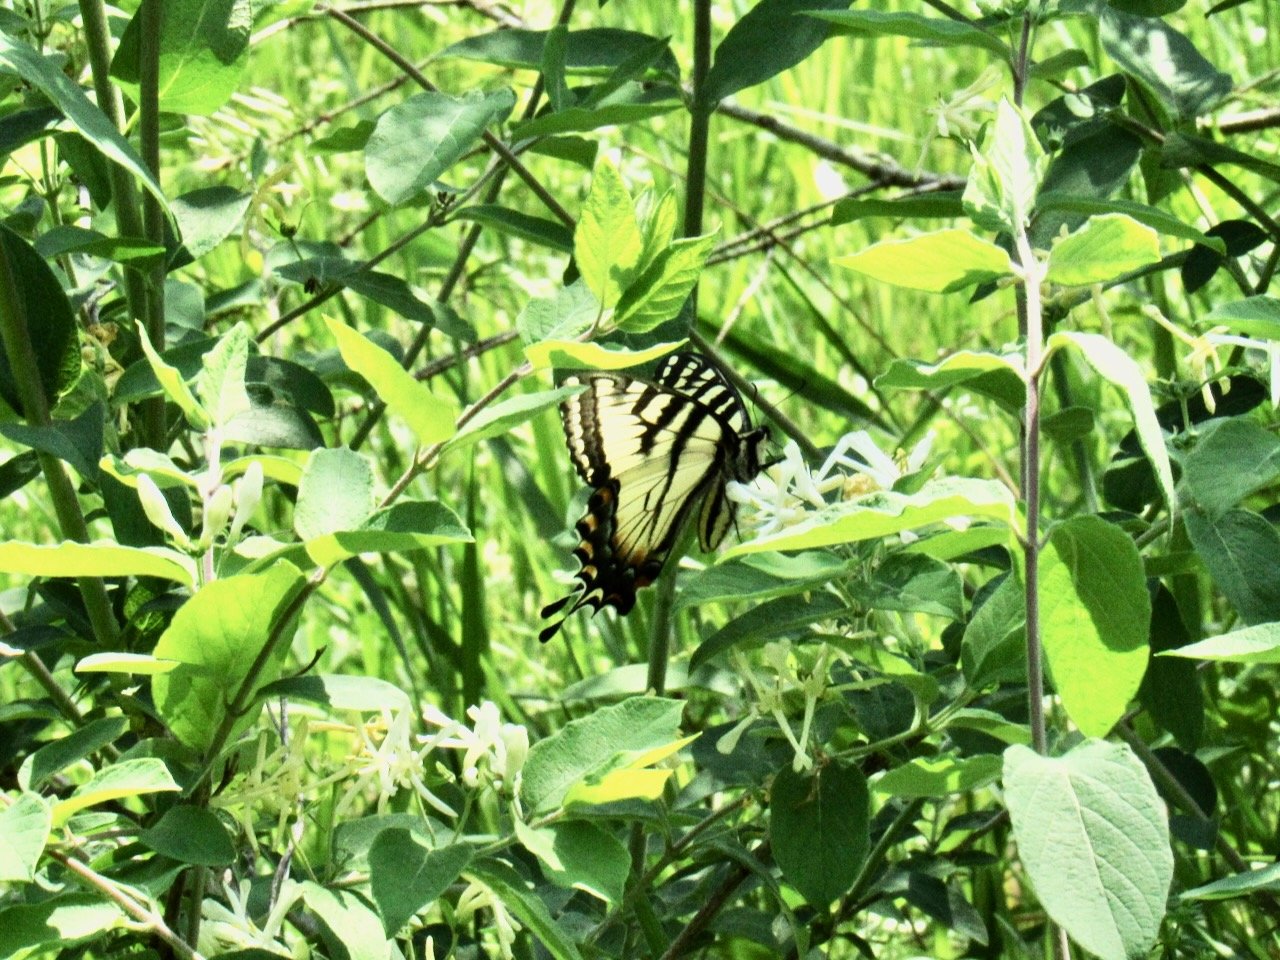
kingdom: Animalia
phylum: Arthropoda
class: Insecta
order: Lepidoptera
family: Papilionidae
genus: Pterourus
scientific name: Pterourus canadensis
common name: Canadian Tiger Swallowtail
